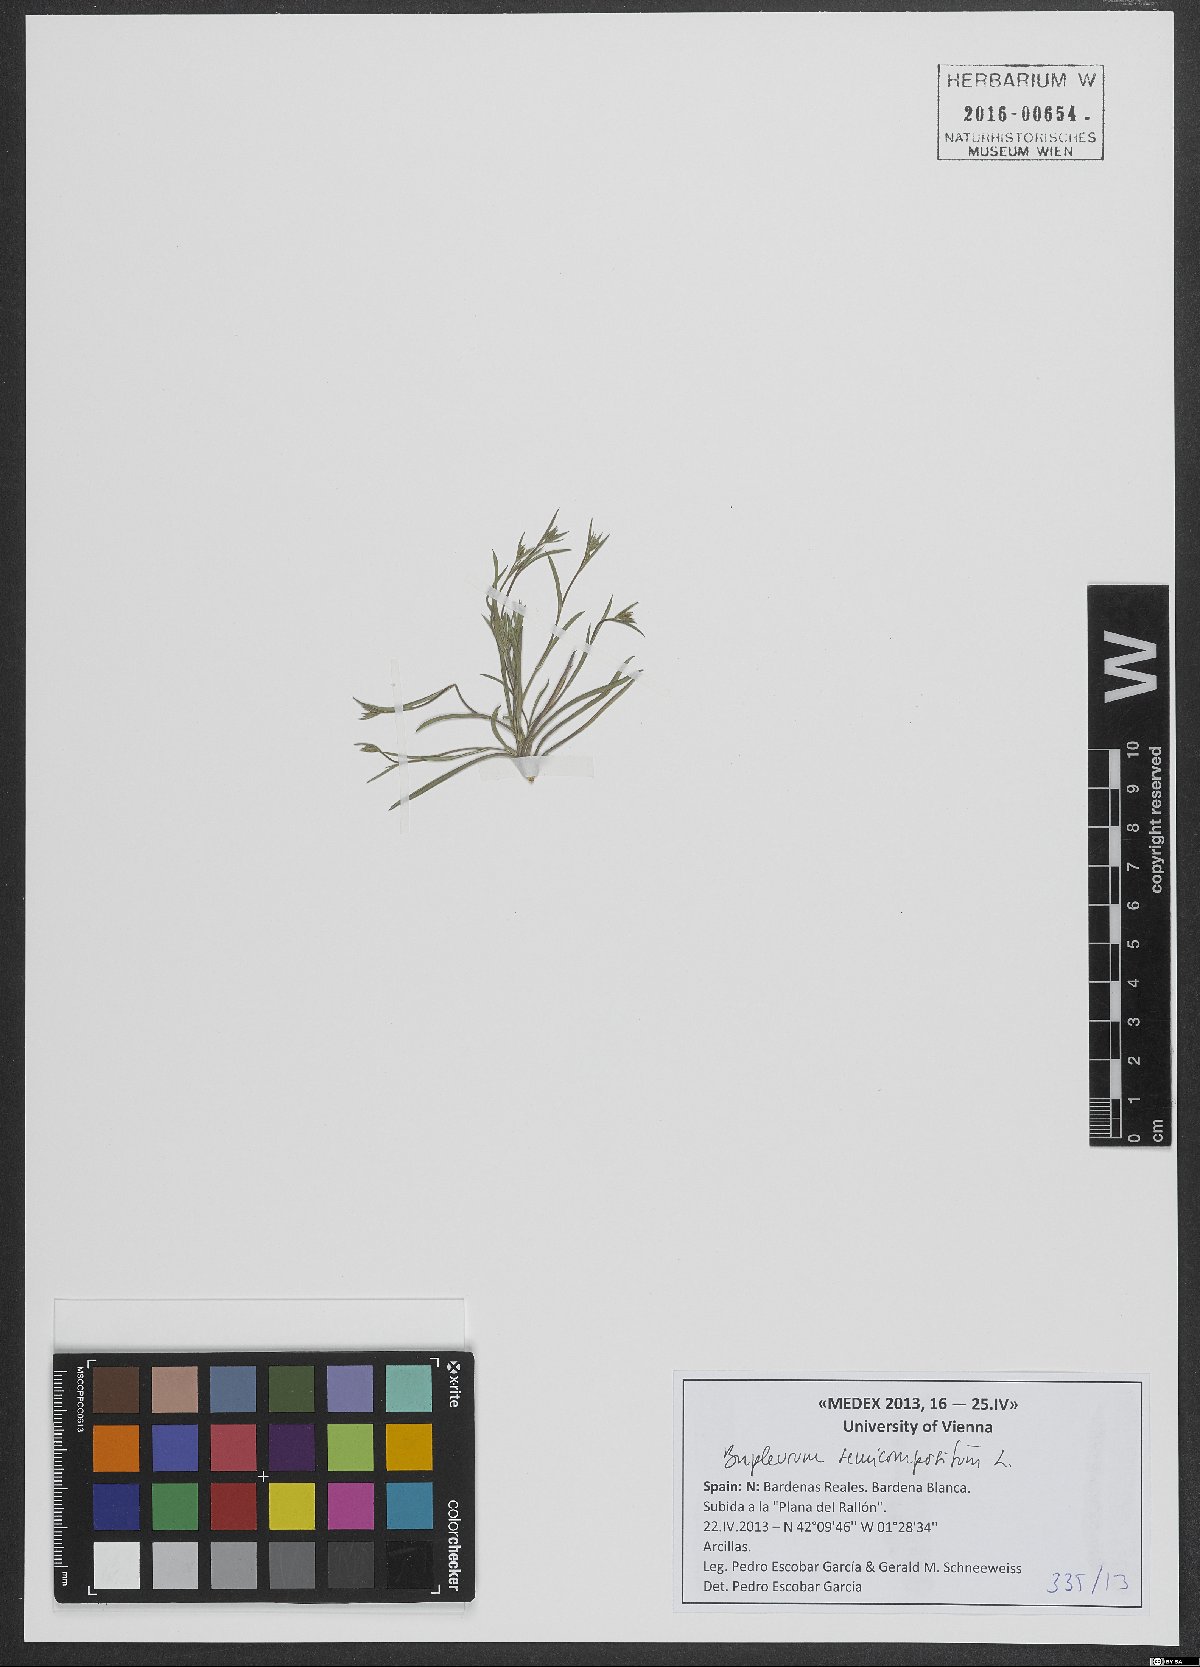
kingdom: Plantae
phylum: Tracheophyta
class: Magnoliopsida
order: Apiales
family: Apiaceae
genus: Bupleurum
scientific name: Bupleurum semicompositum
